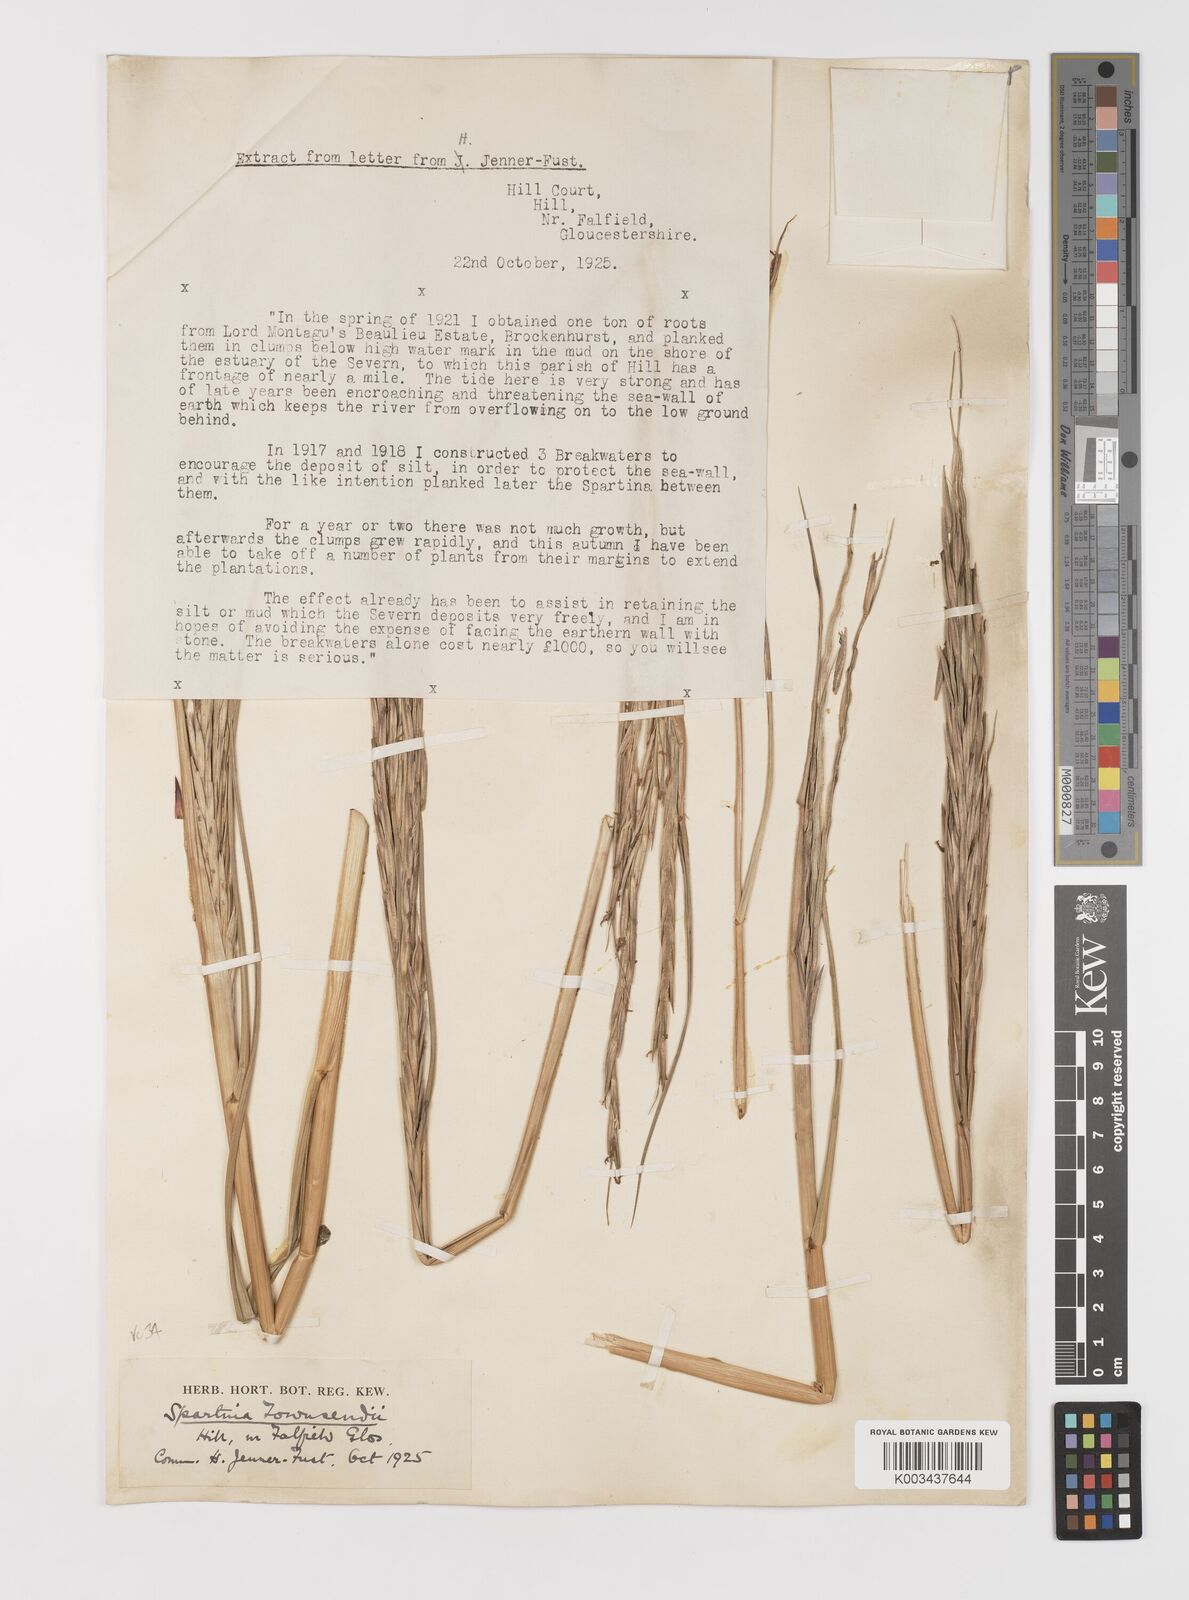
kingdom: Plantae
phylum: Tracheophyta
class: Liliopsida
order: Poales
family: Poaceae
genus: Sporobolus
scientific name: Sporobolus anglicus
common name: English cordgrass
